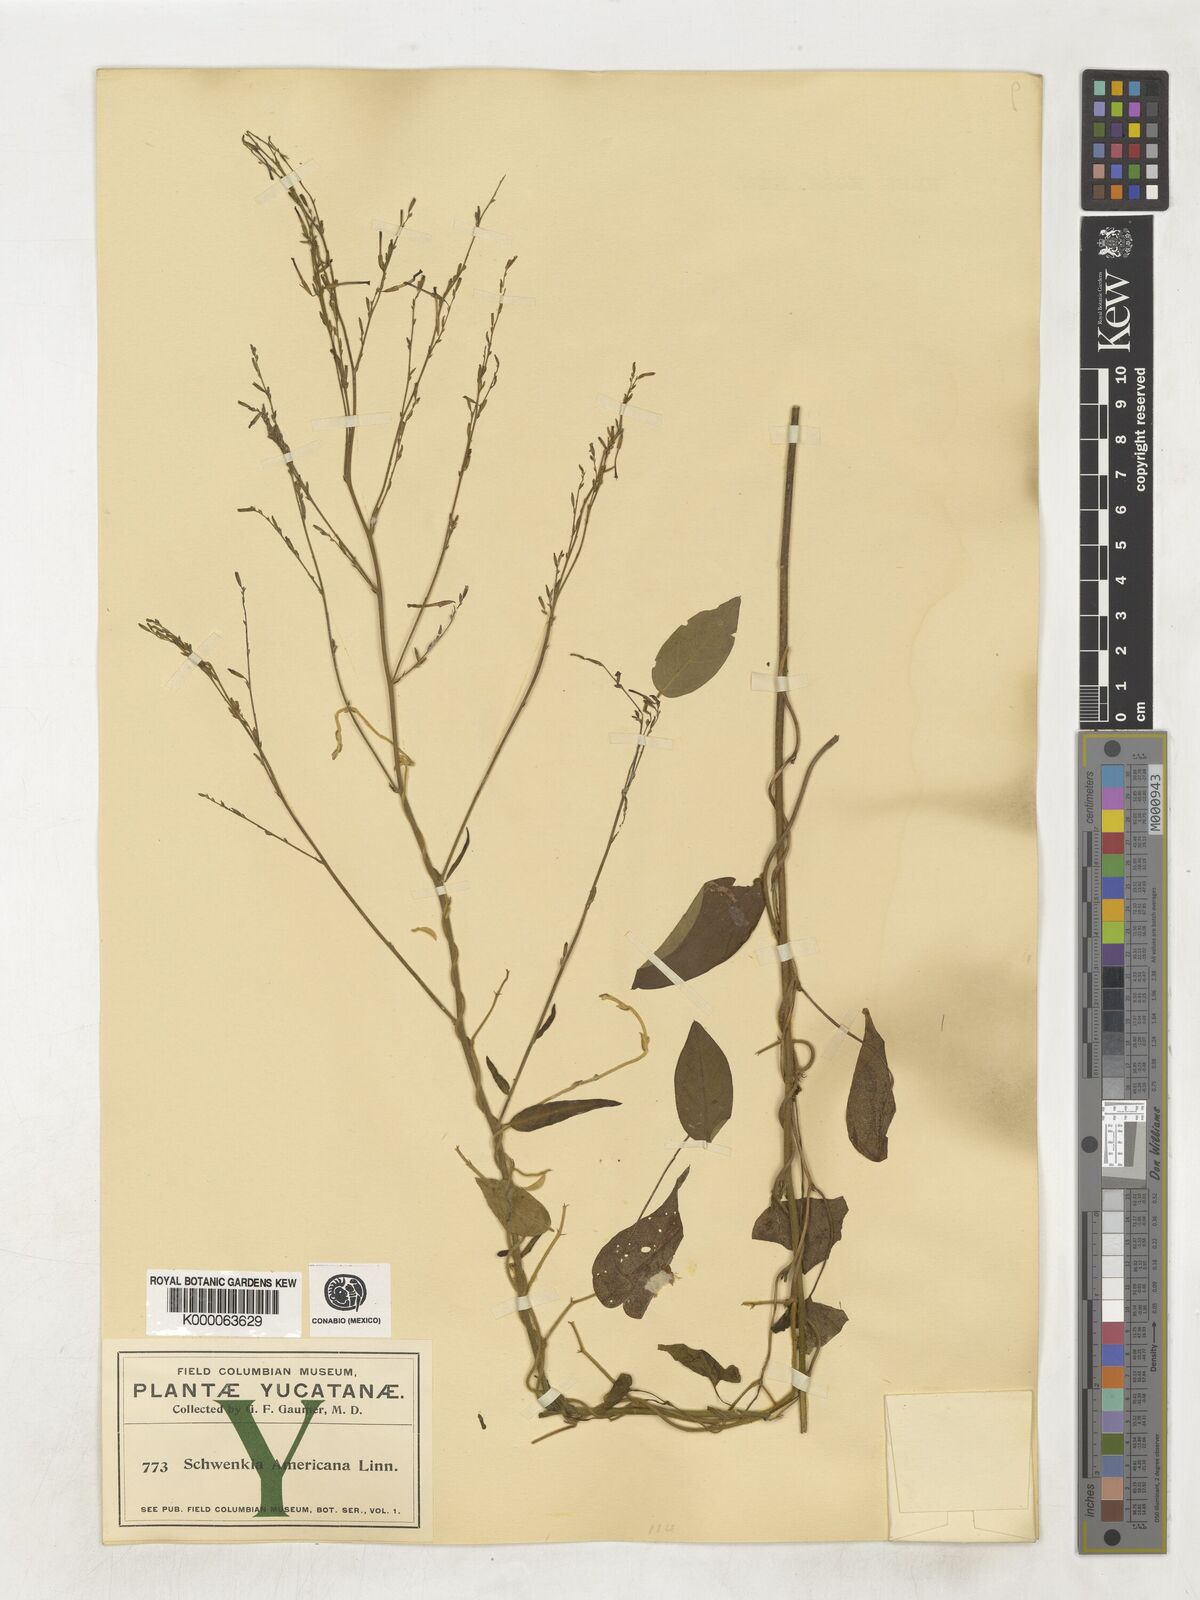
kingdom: Plantae
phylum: Tracheophyta
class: Magnoliopsida
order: Solanales
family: Solanaceae
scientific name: Solanaceae
